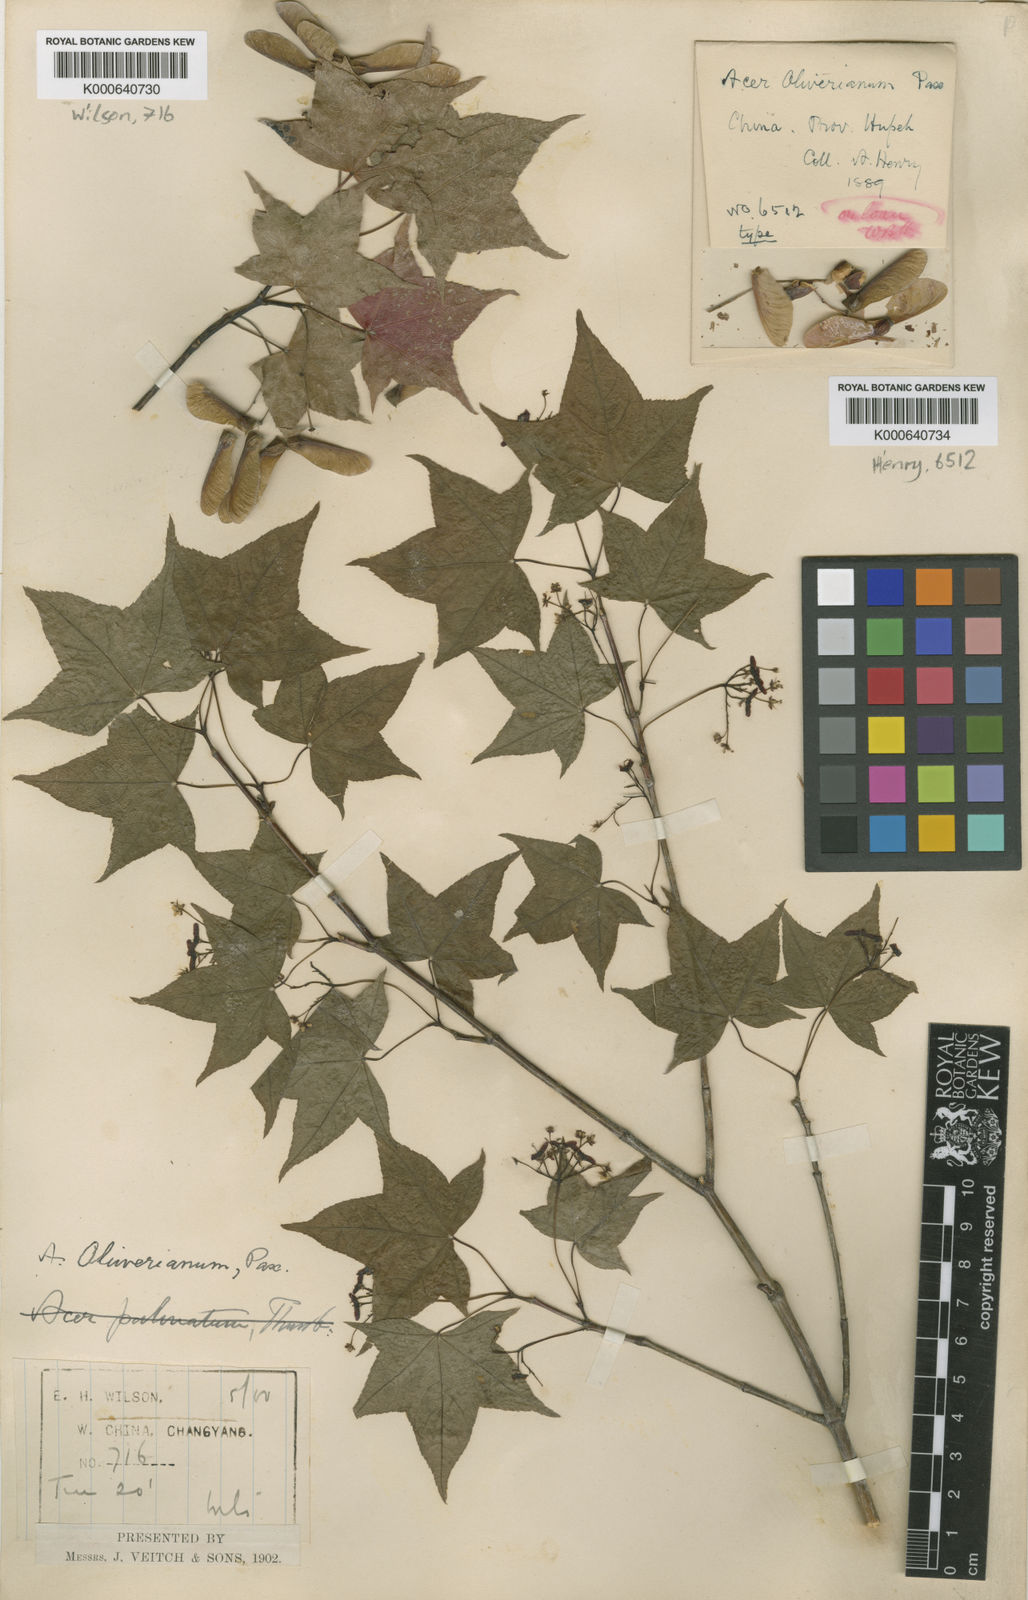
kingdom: Plantae
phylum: Tracheophyta
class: Magnoliopsida
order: Sapindales
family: Sapindaceae
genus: Acer
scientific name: Acer oliverianum
